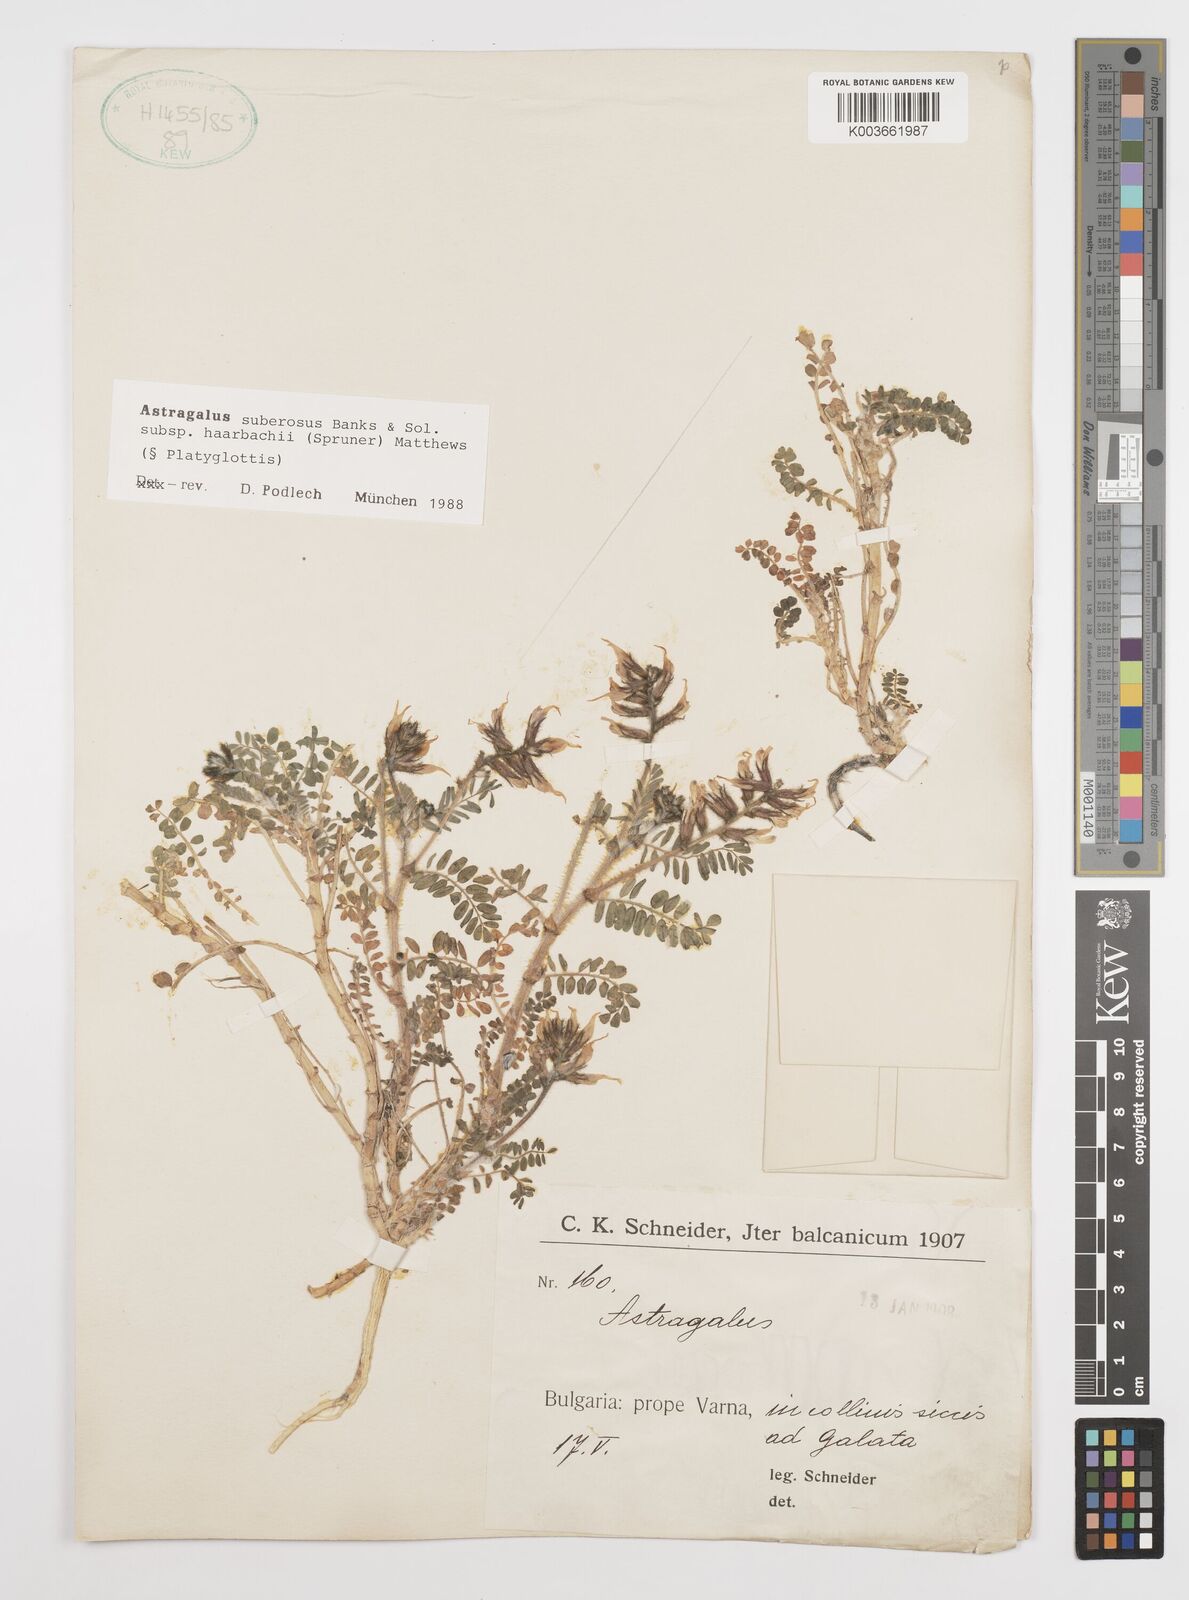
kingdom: Plantae
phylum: Tracheophyta
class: Magnoliopsida
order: Fabales
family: Fabaceae
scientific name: Fabaceae
